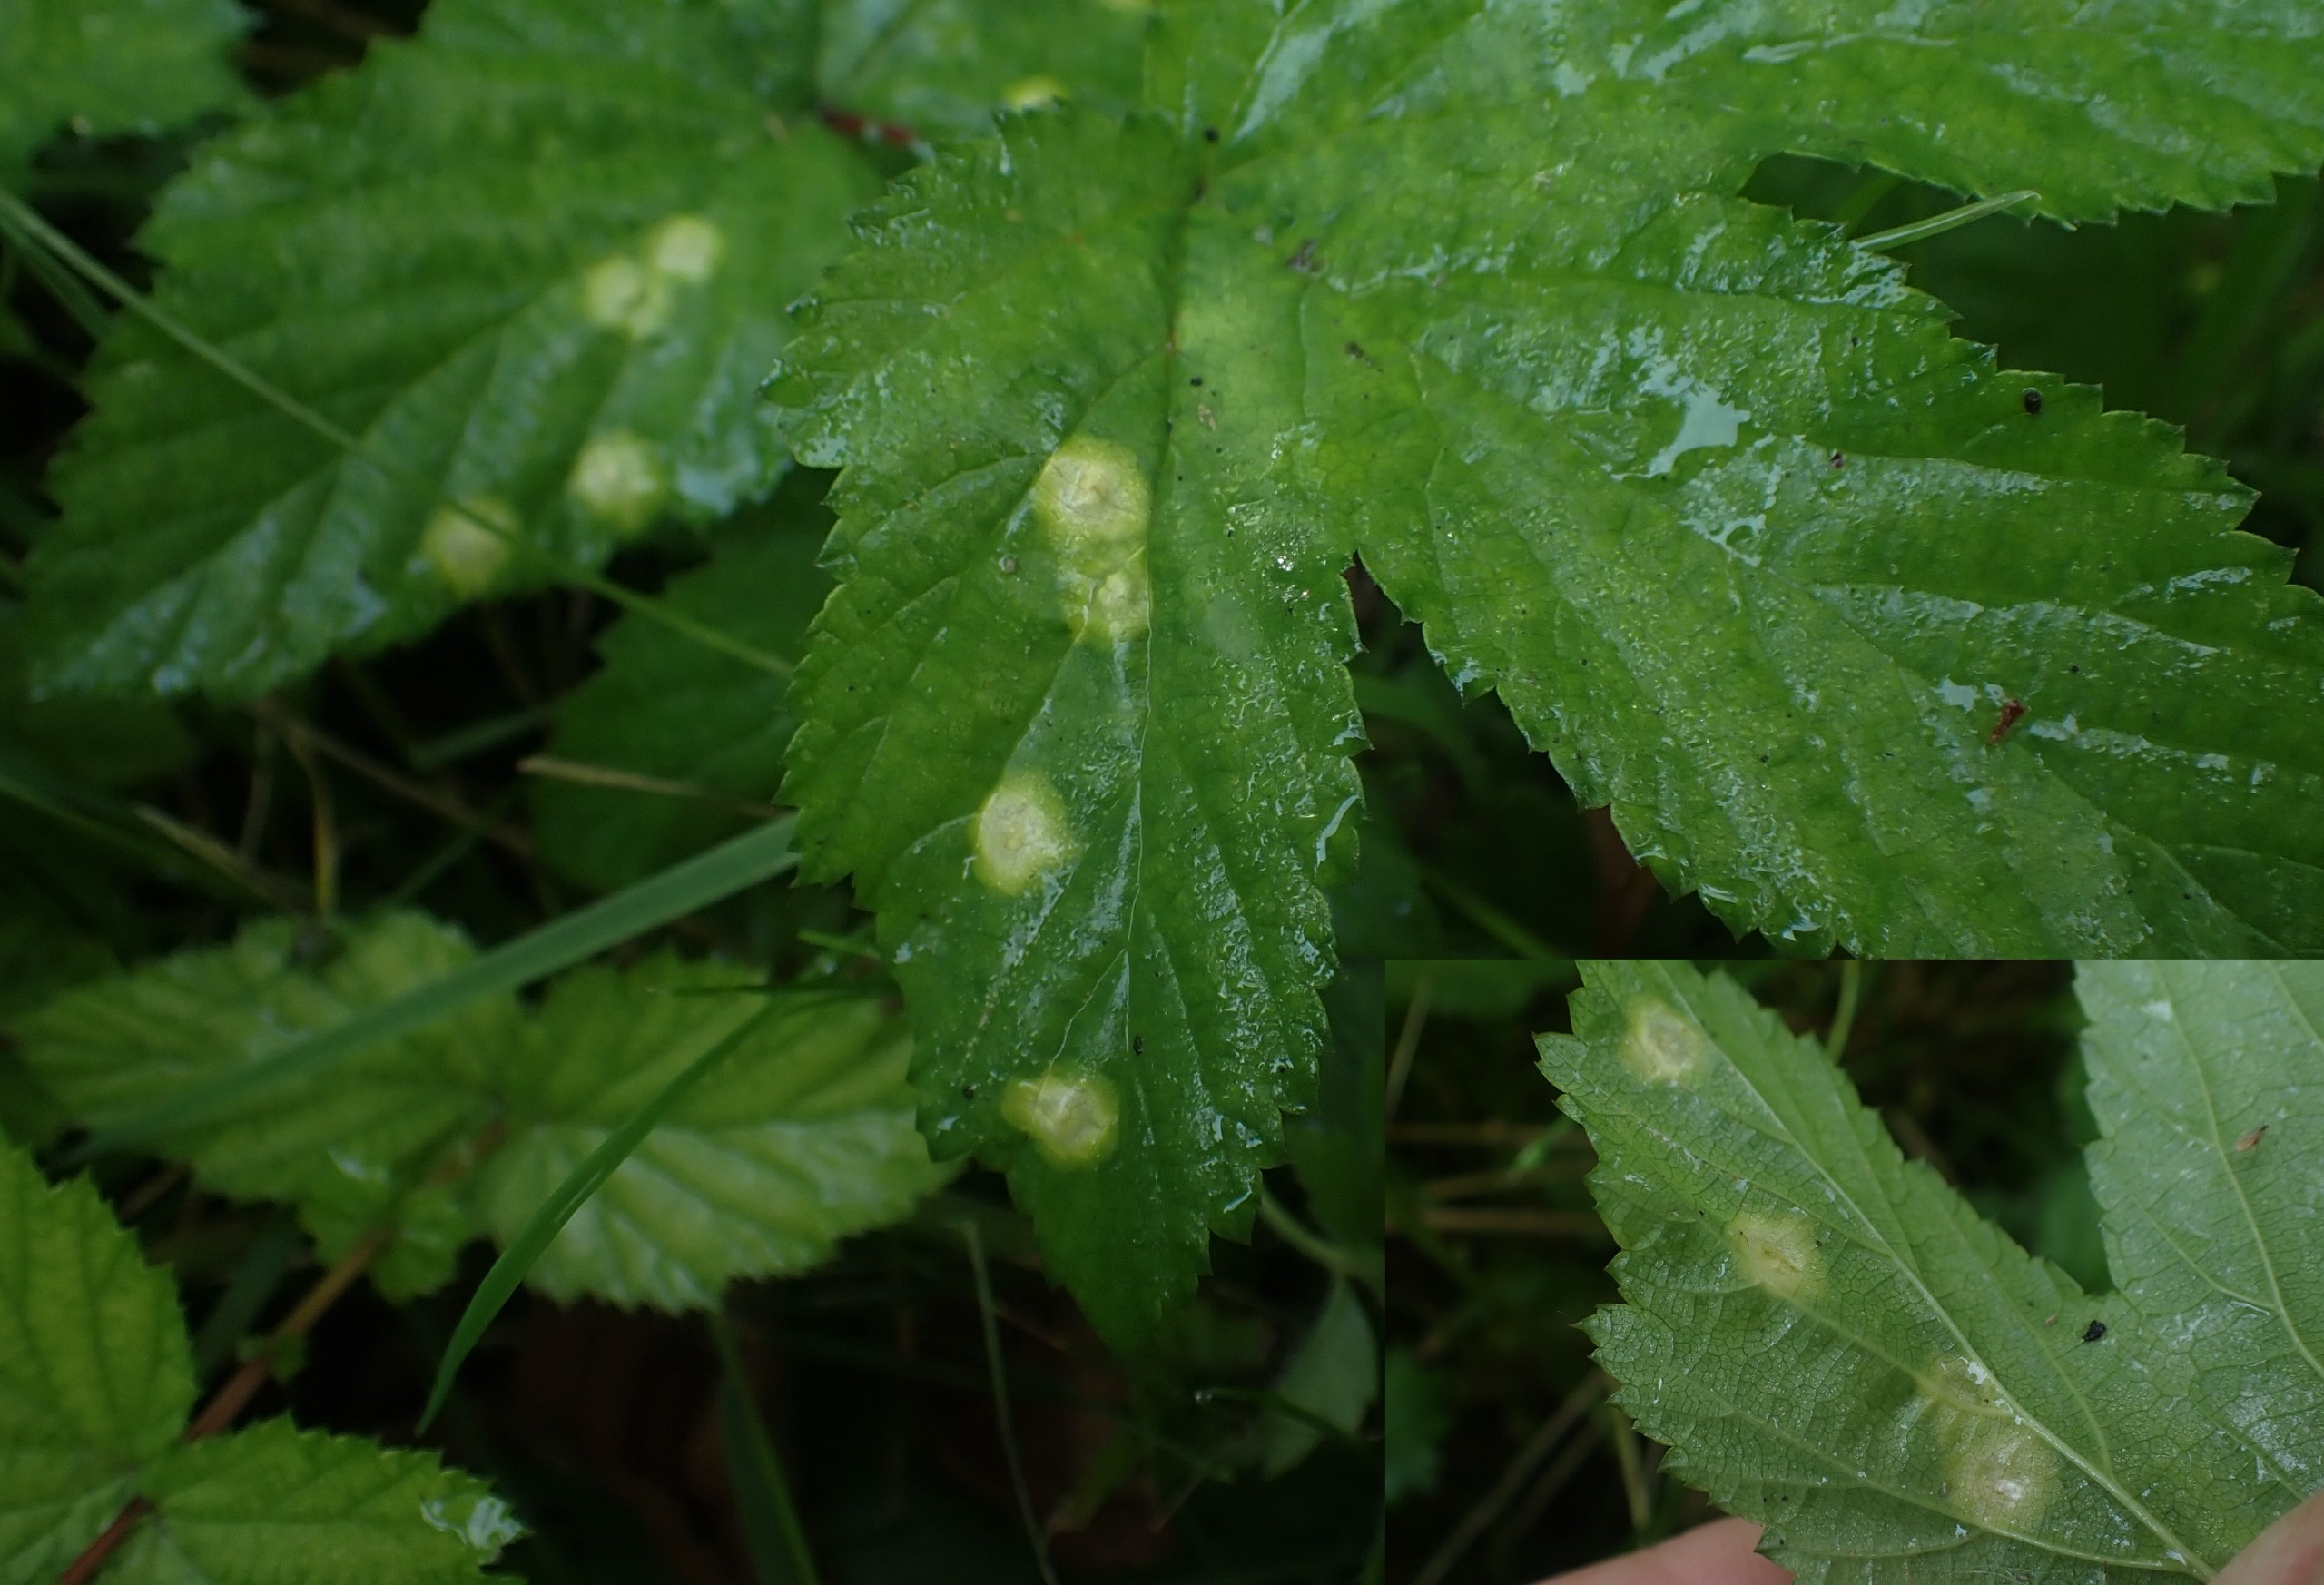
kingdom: Animalia
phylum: Arthropoda
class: Insecta
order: Diptera
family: Cecidomyiidae
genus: Dasineura
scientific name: Dasineura pustulans
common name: Mjødurtblistgalmyg
